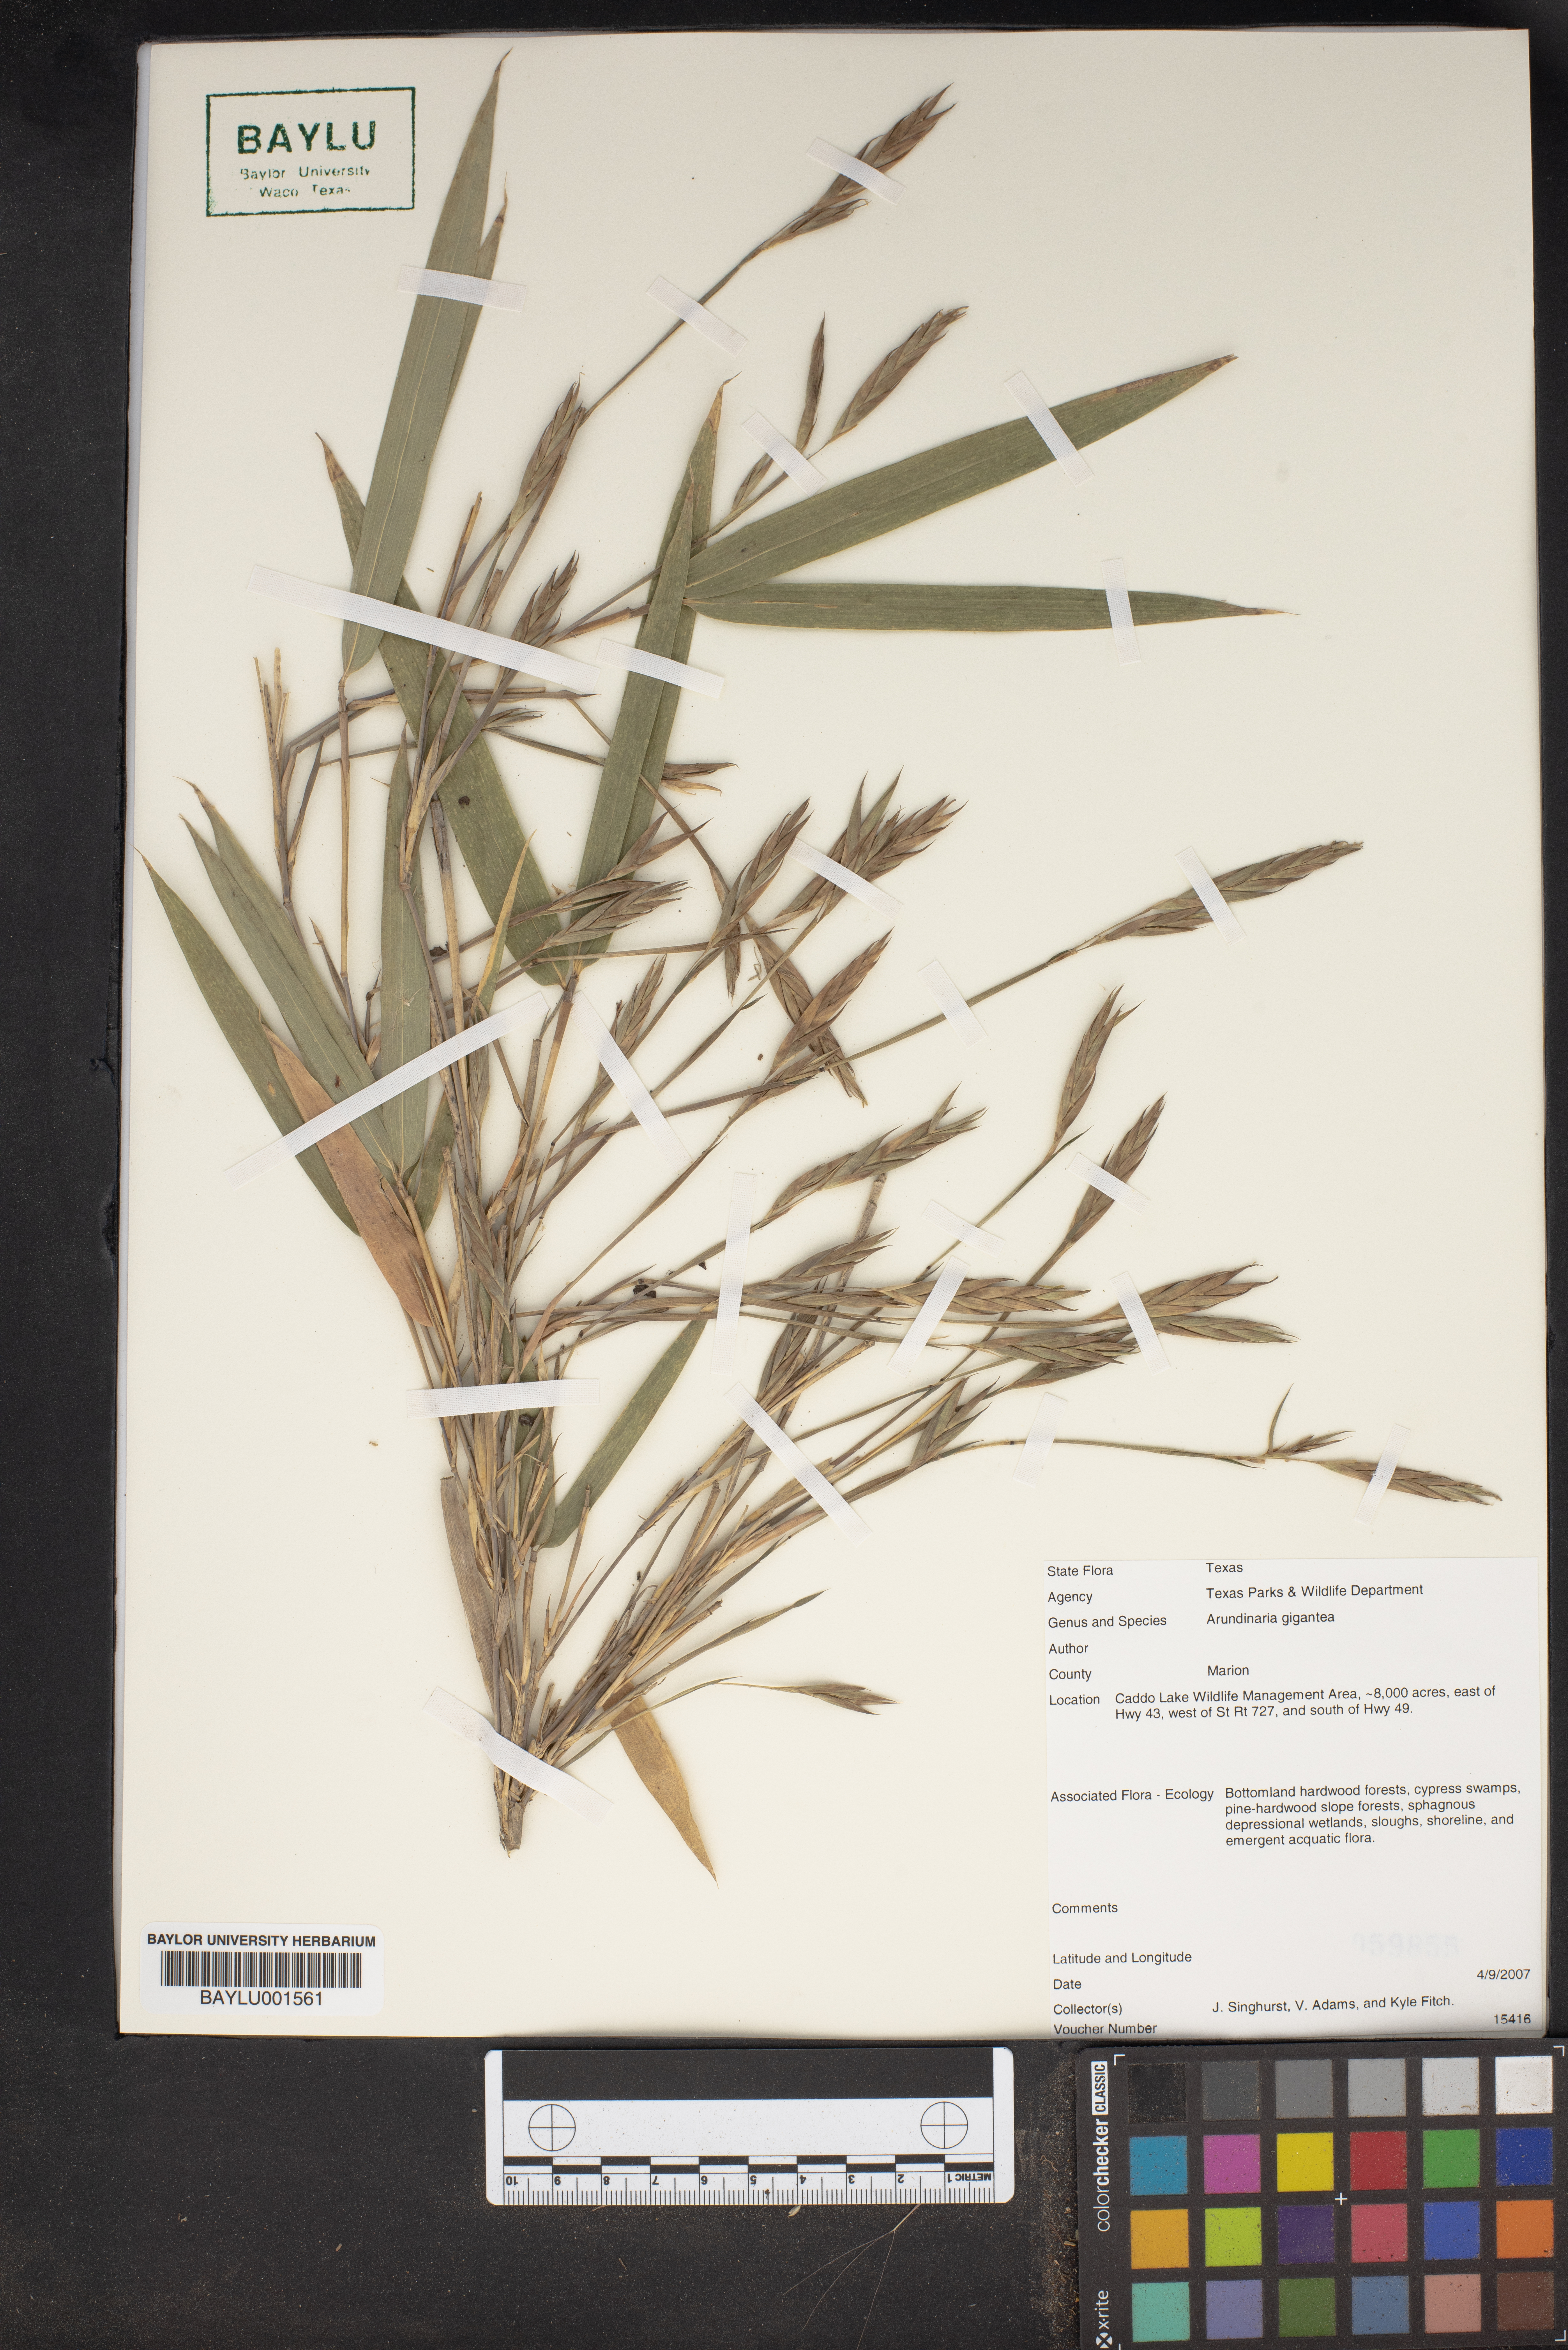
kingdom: Plantae
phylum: Tracheophyta
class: Liliopsida
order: Poales
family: Poaceae
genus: Arundinaria
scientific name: Arundinaria gigantea
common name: Giant cane
